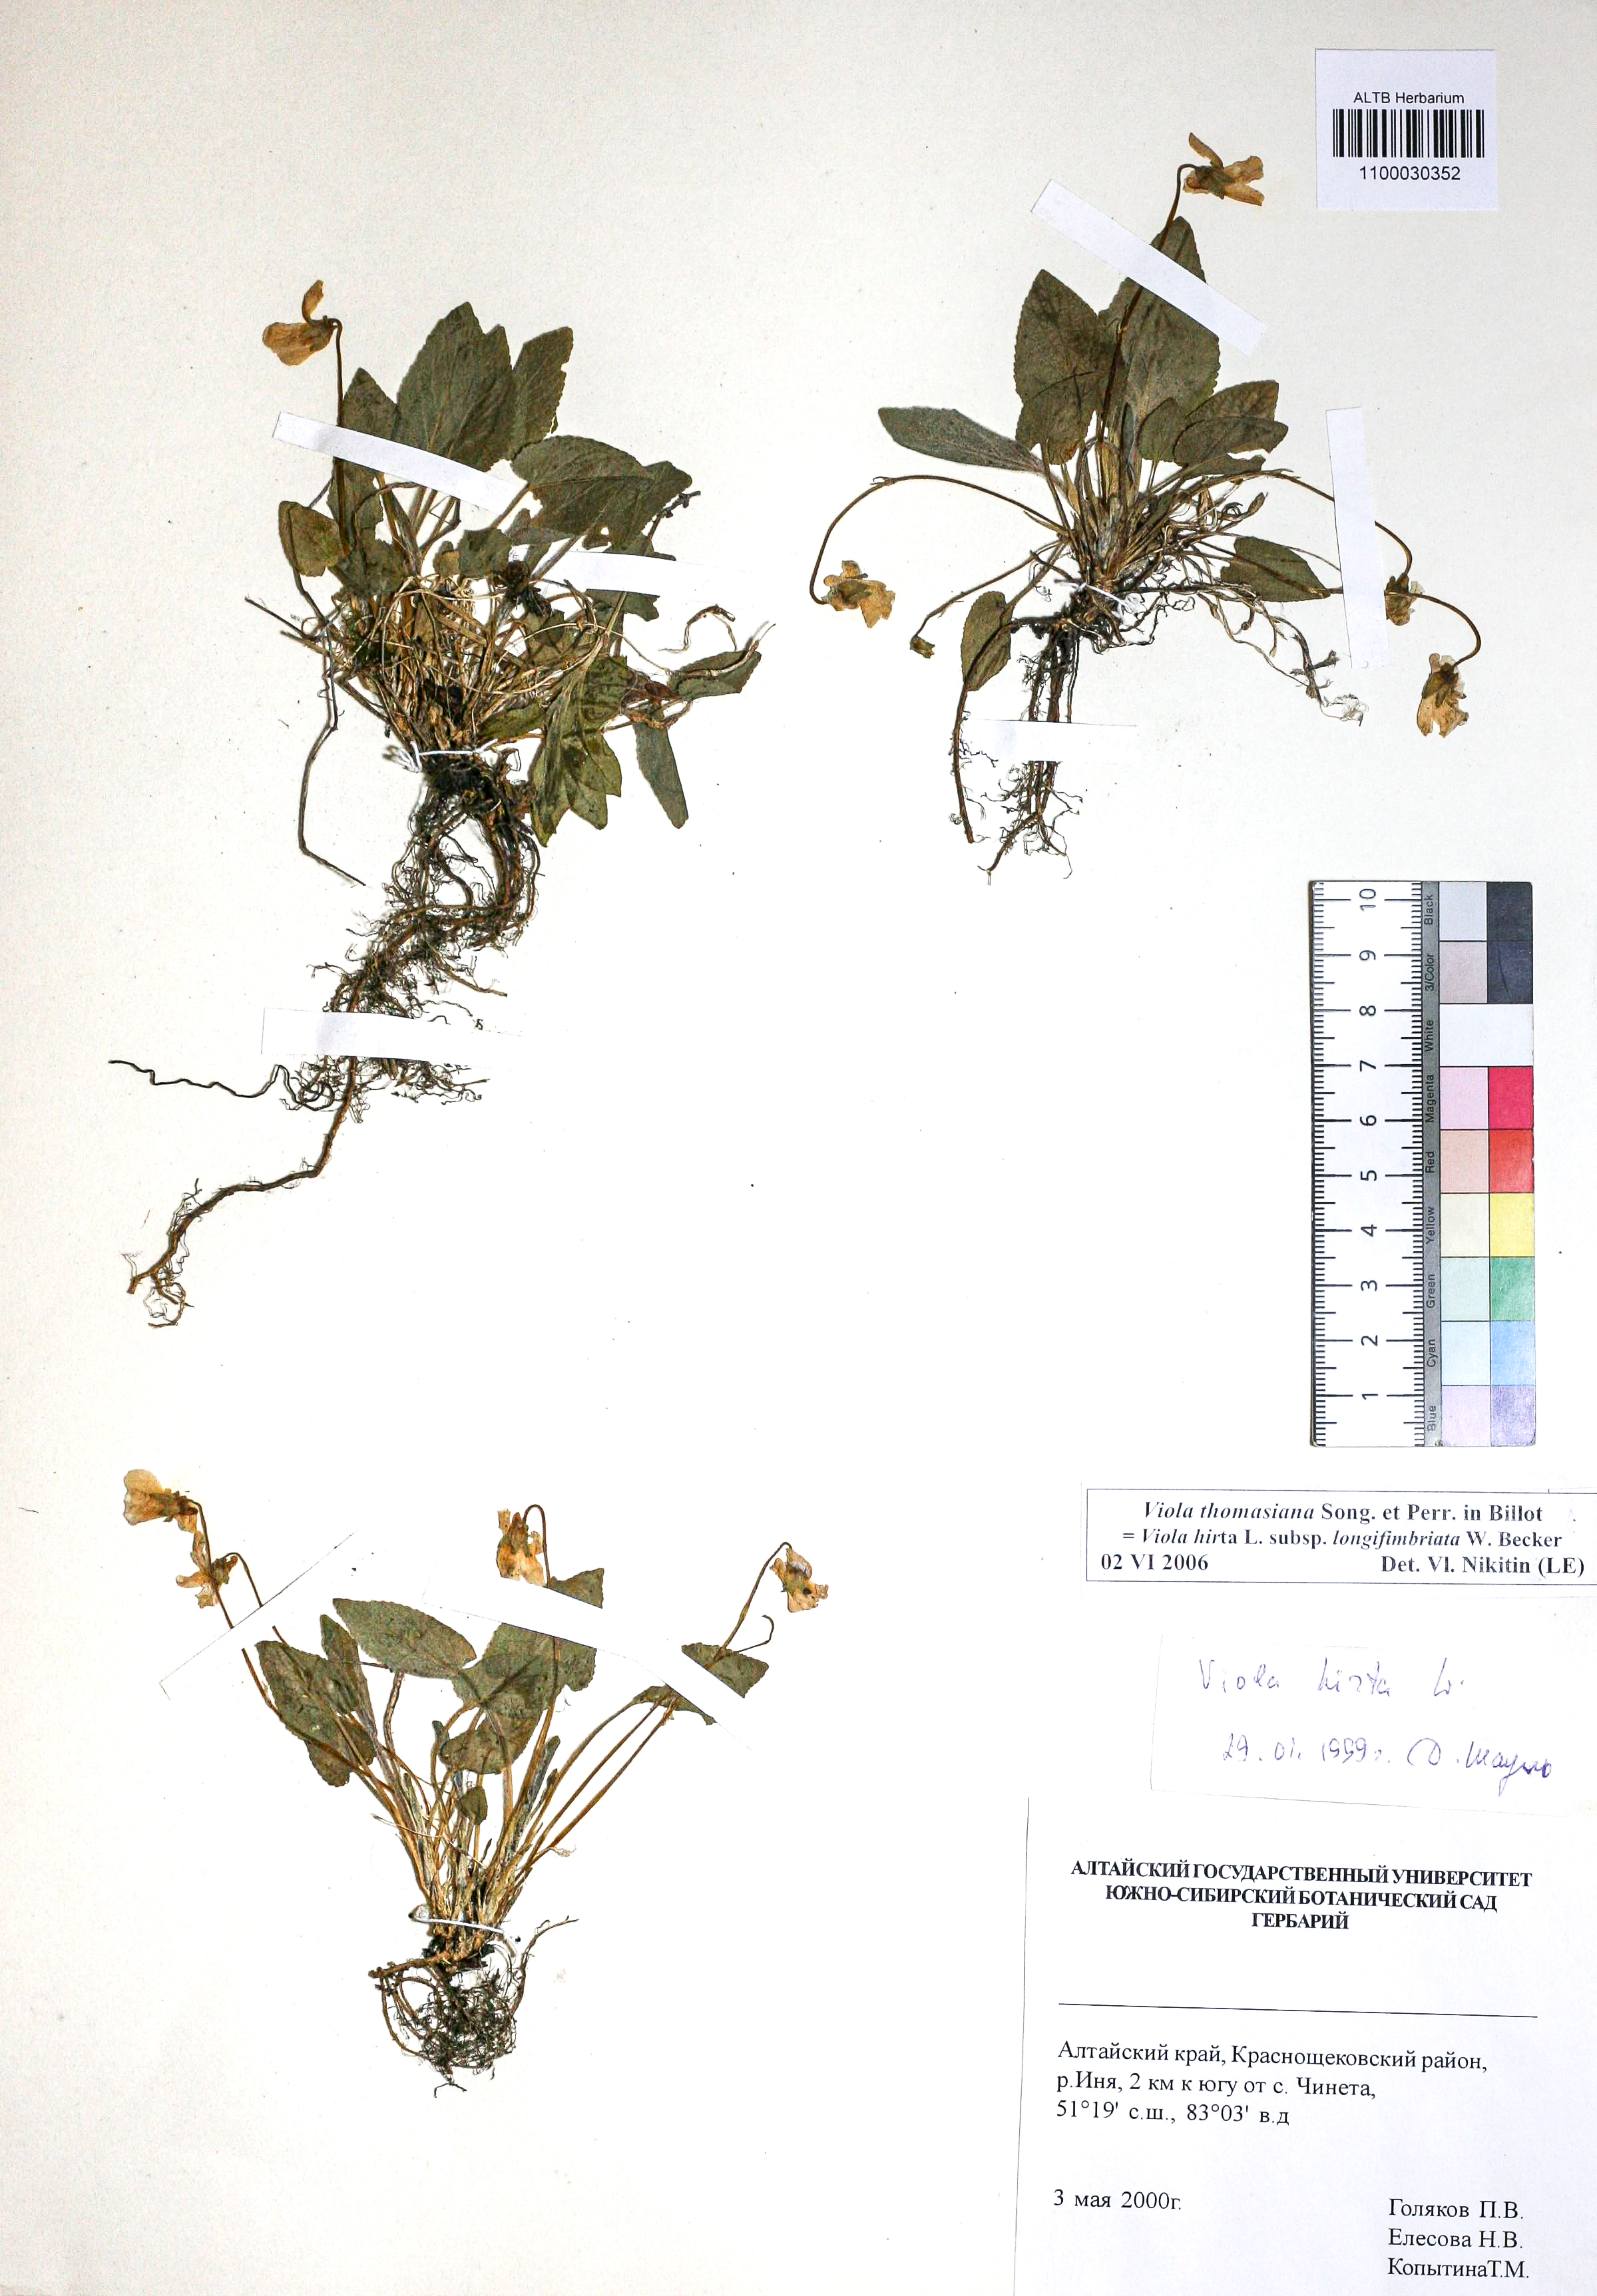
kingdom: Plantae
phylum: Tracheophyta
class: Magnoliopsida
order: Malpighiales
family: Violaceae
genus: Viola
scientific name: Viola thomasiana
